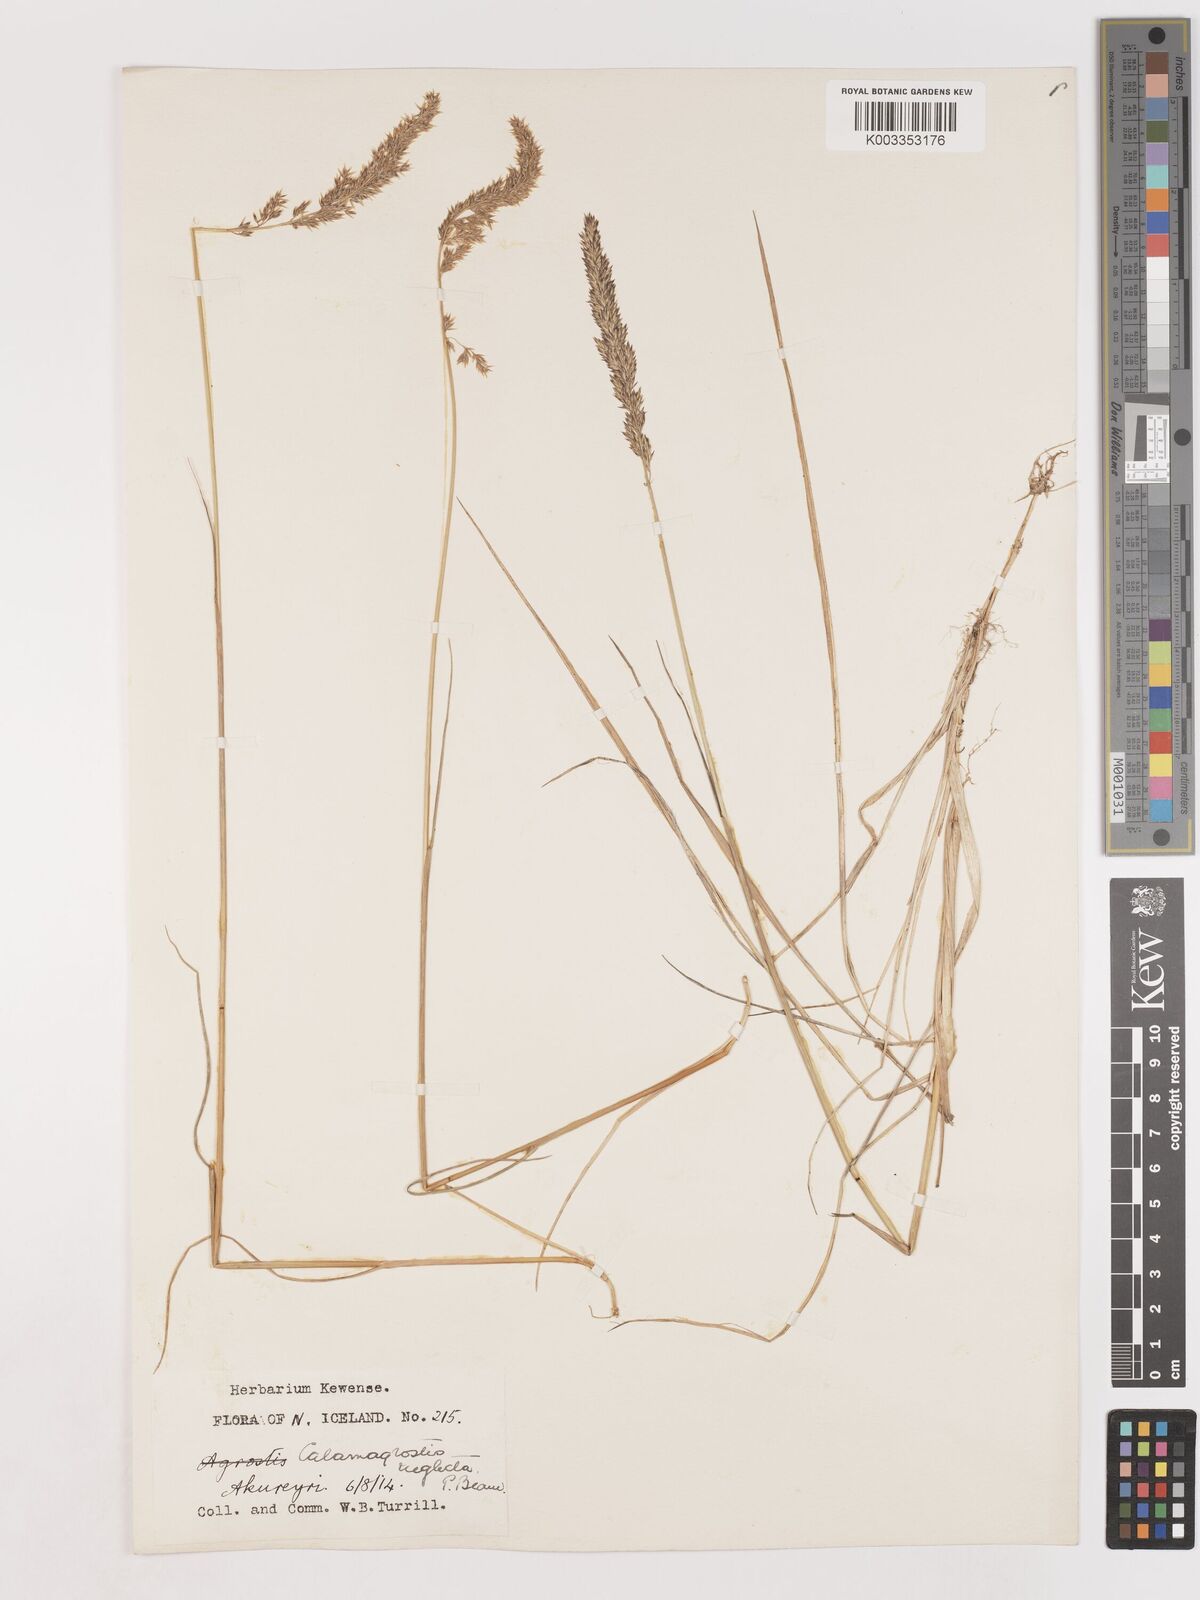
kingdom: Plantae
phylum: Tracheophyta
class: Liliopsida
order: Poales
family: Poaceae
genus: Cinnagrostis
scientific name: Cinnagrostis recta
